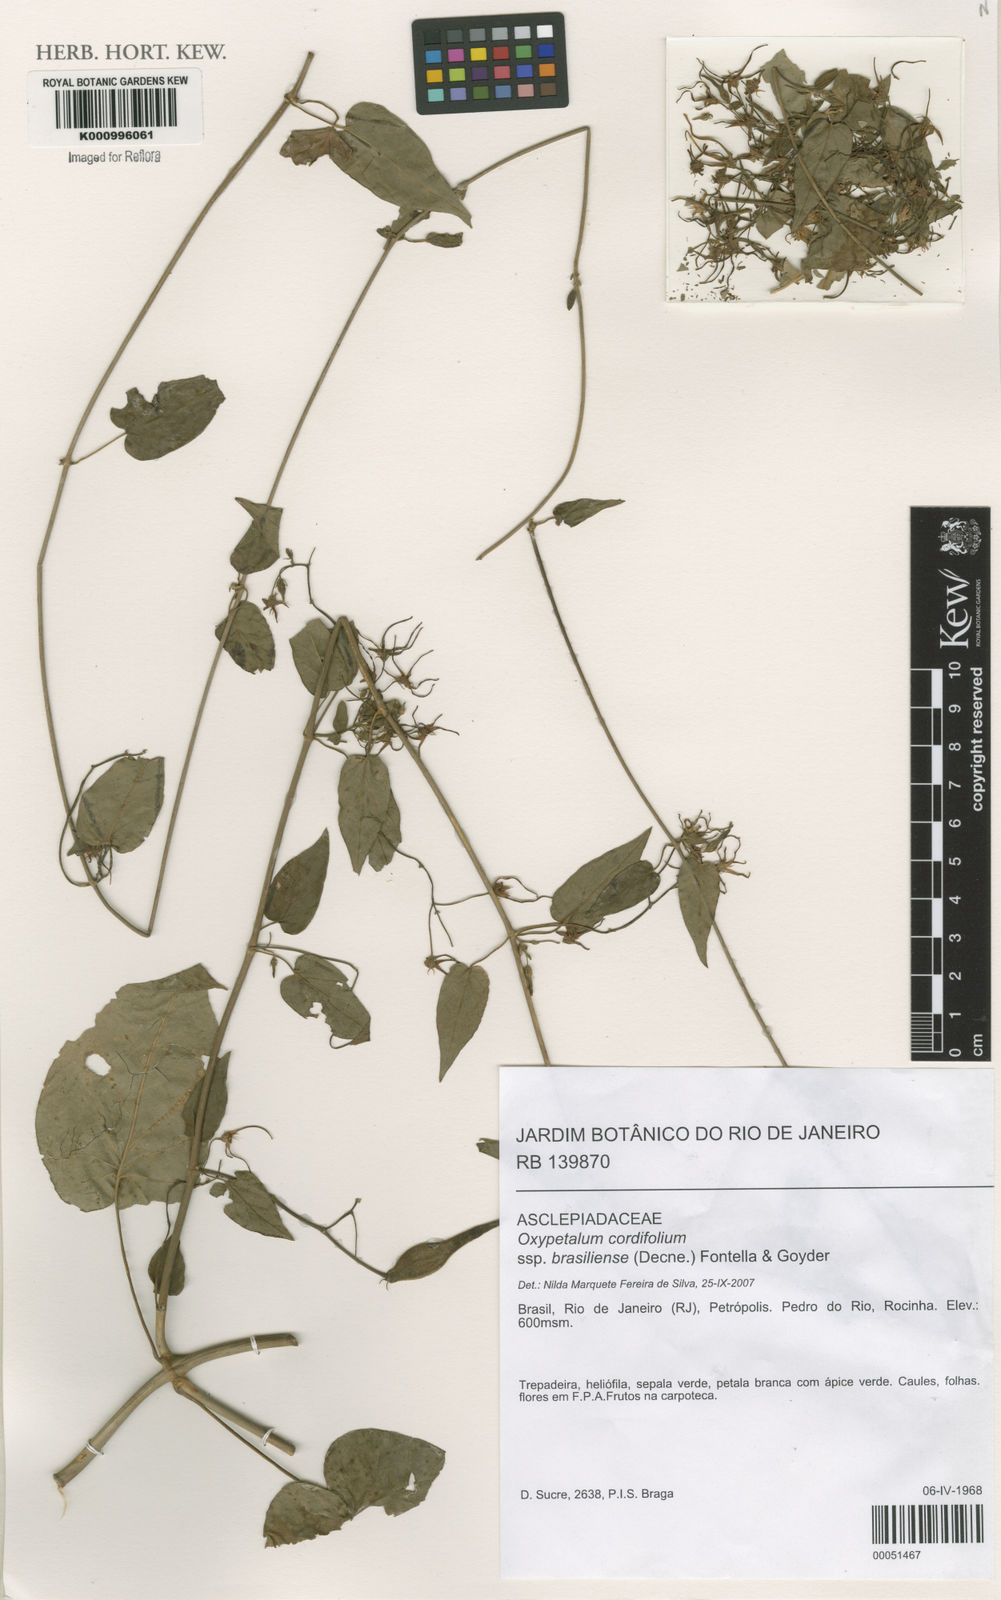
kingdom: Plantae
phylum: Tracheophyta
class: Magnoliopsida
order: Gentianales
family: Apocynaceae
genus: Oxypetalum
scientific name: Oxypetalum cordifolium
